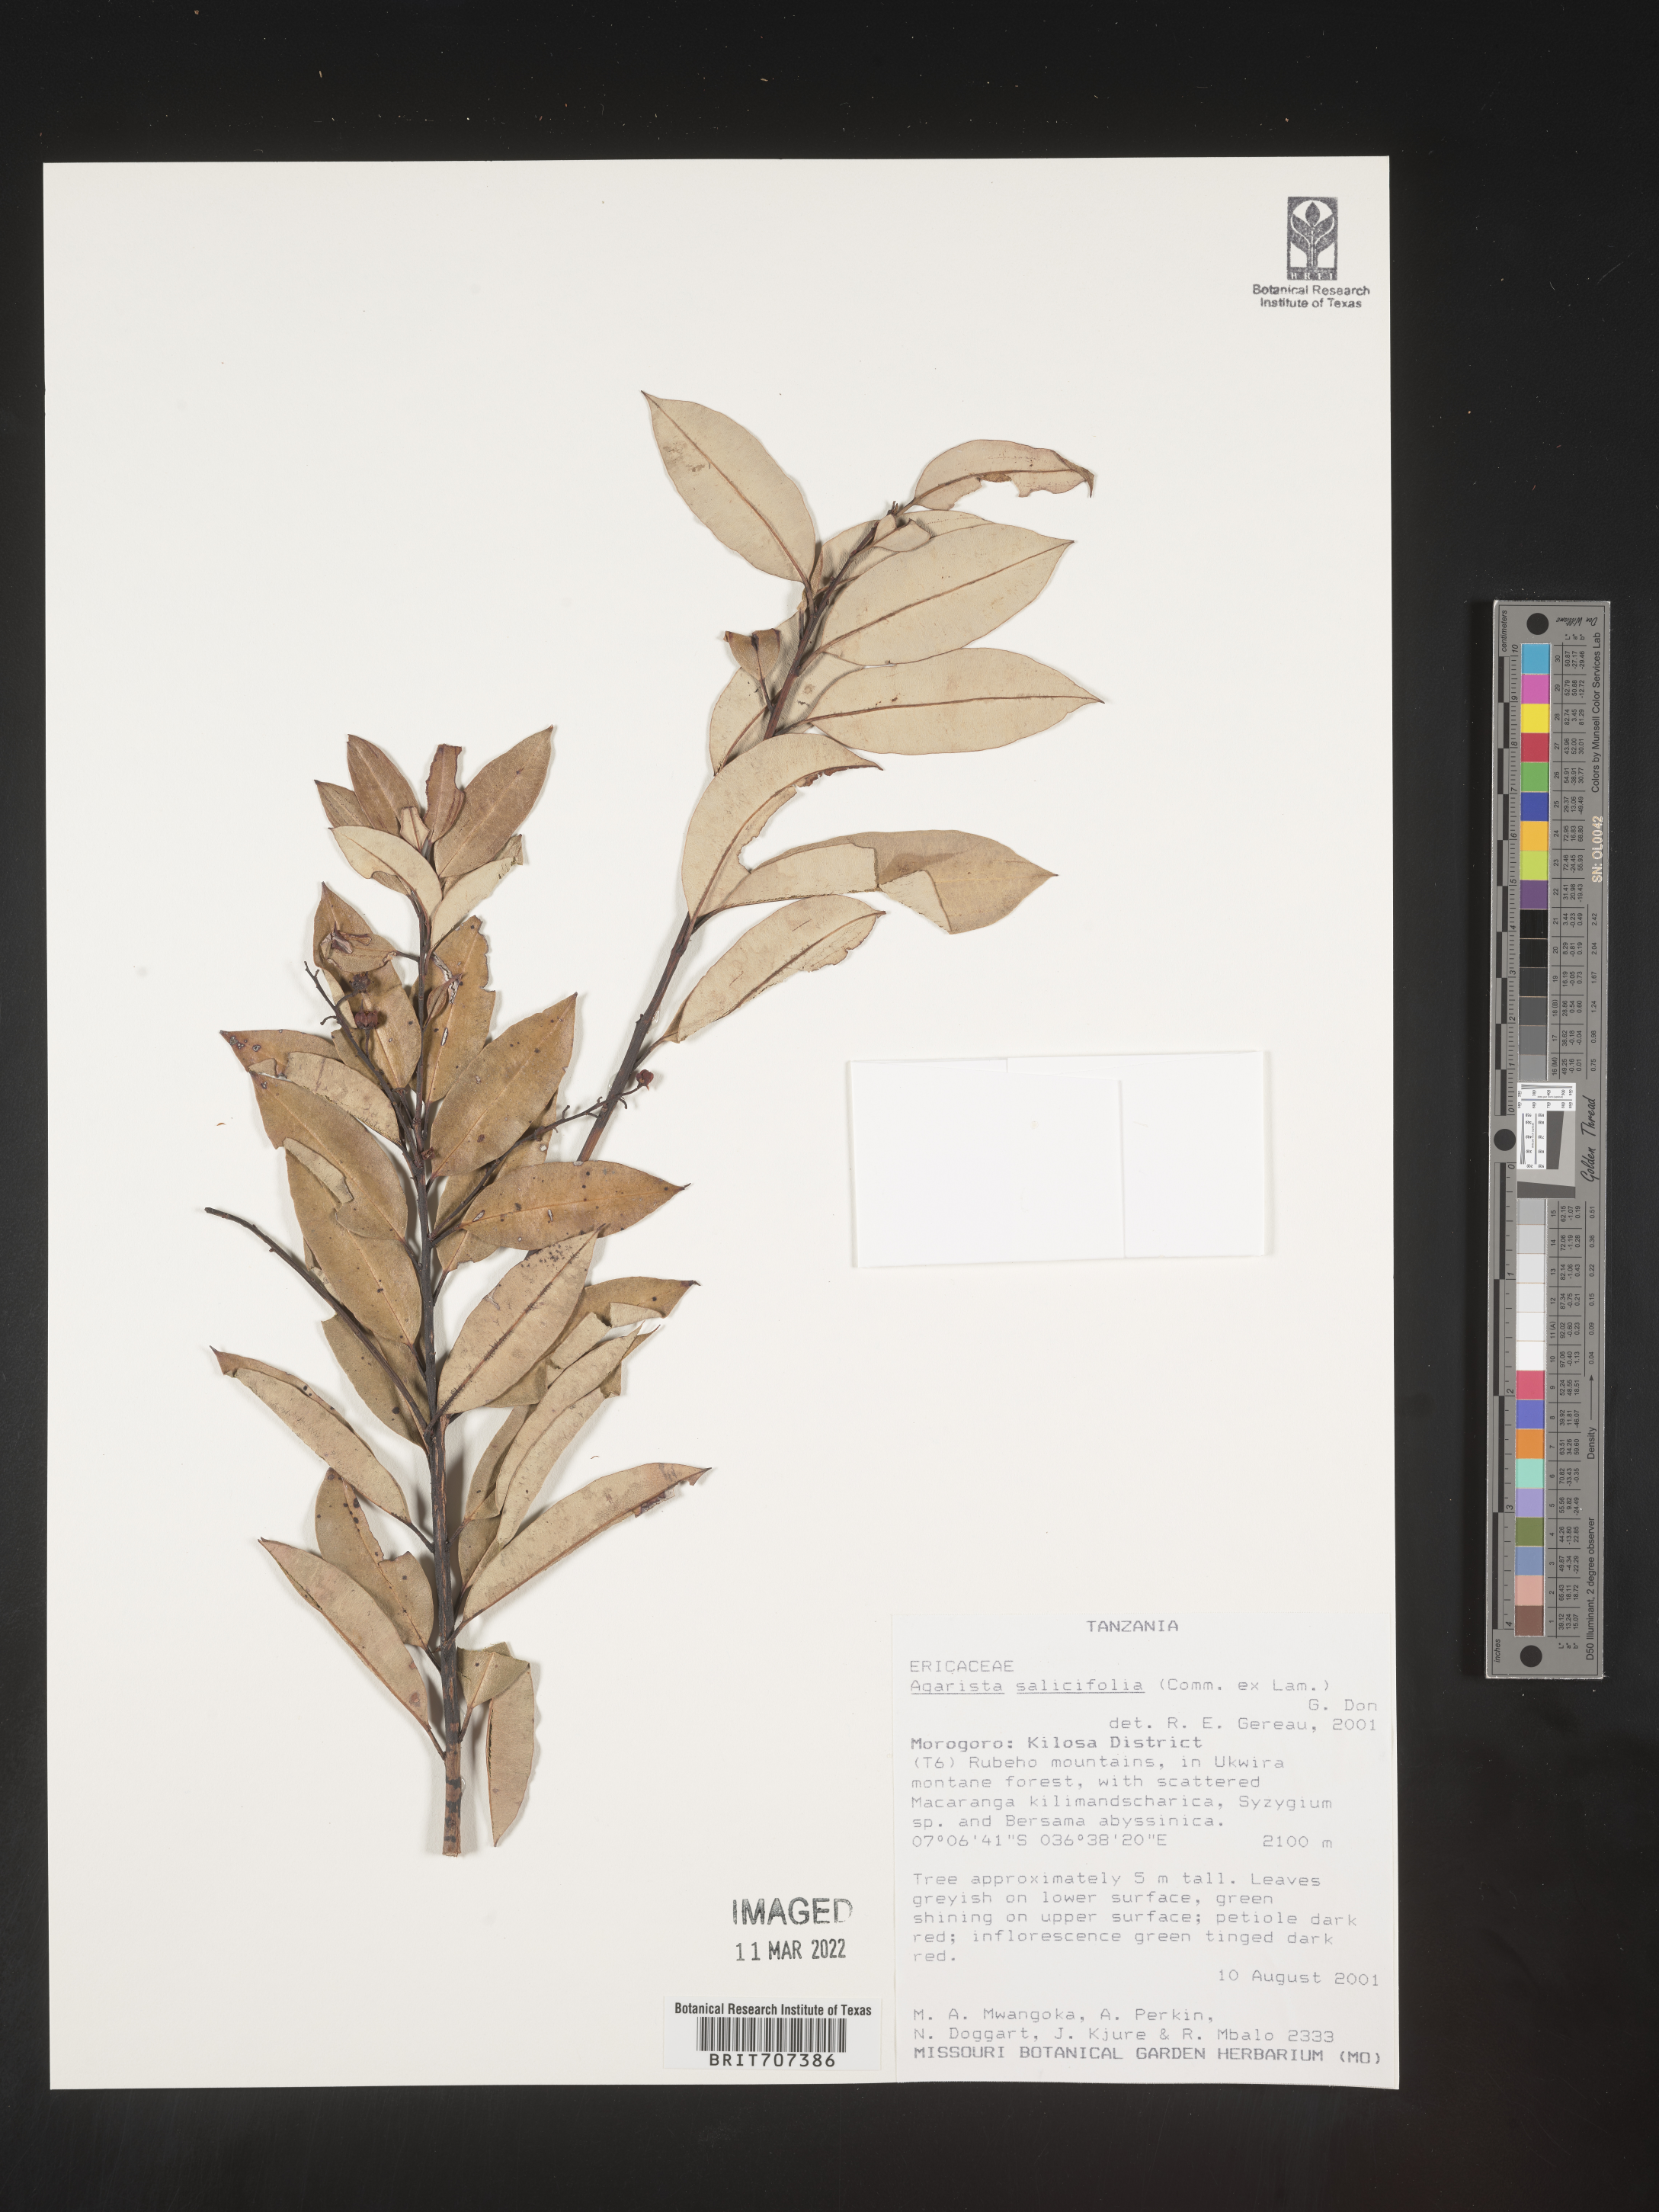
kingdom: Plantae
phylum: Tracheophyta
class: Magnoliopsida
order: Ericales
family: Ericaceae
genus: Agarista
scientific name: Agarista salicifolia
